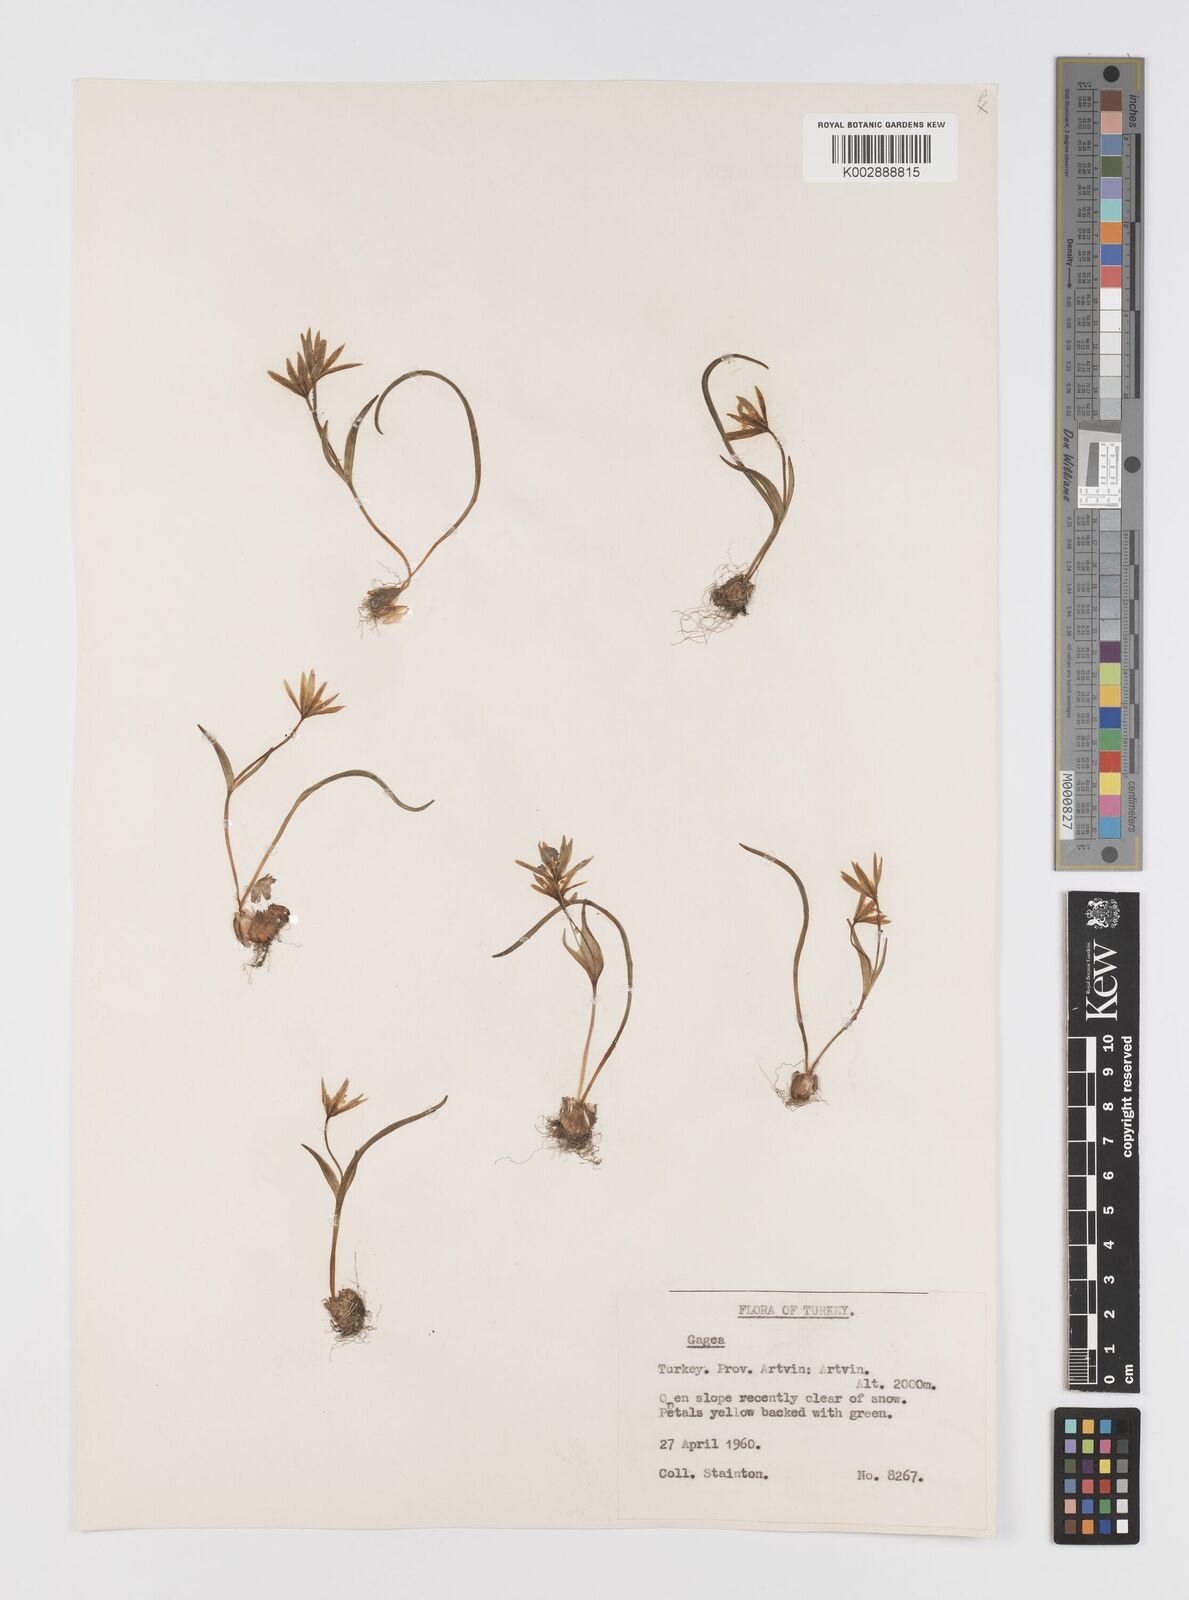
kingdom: Plantae
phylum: Tracheophyta
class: Liliopsida
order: Liliales
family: Liliaceae
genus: Gagea
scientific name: Gagea
